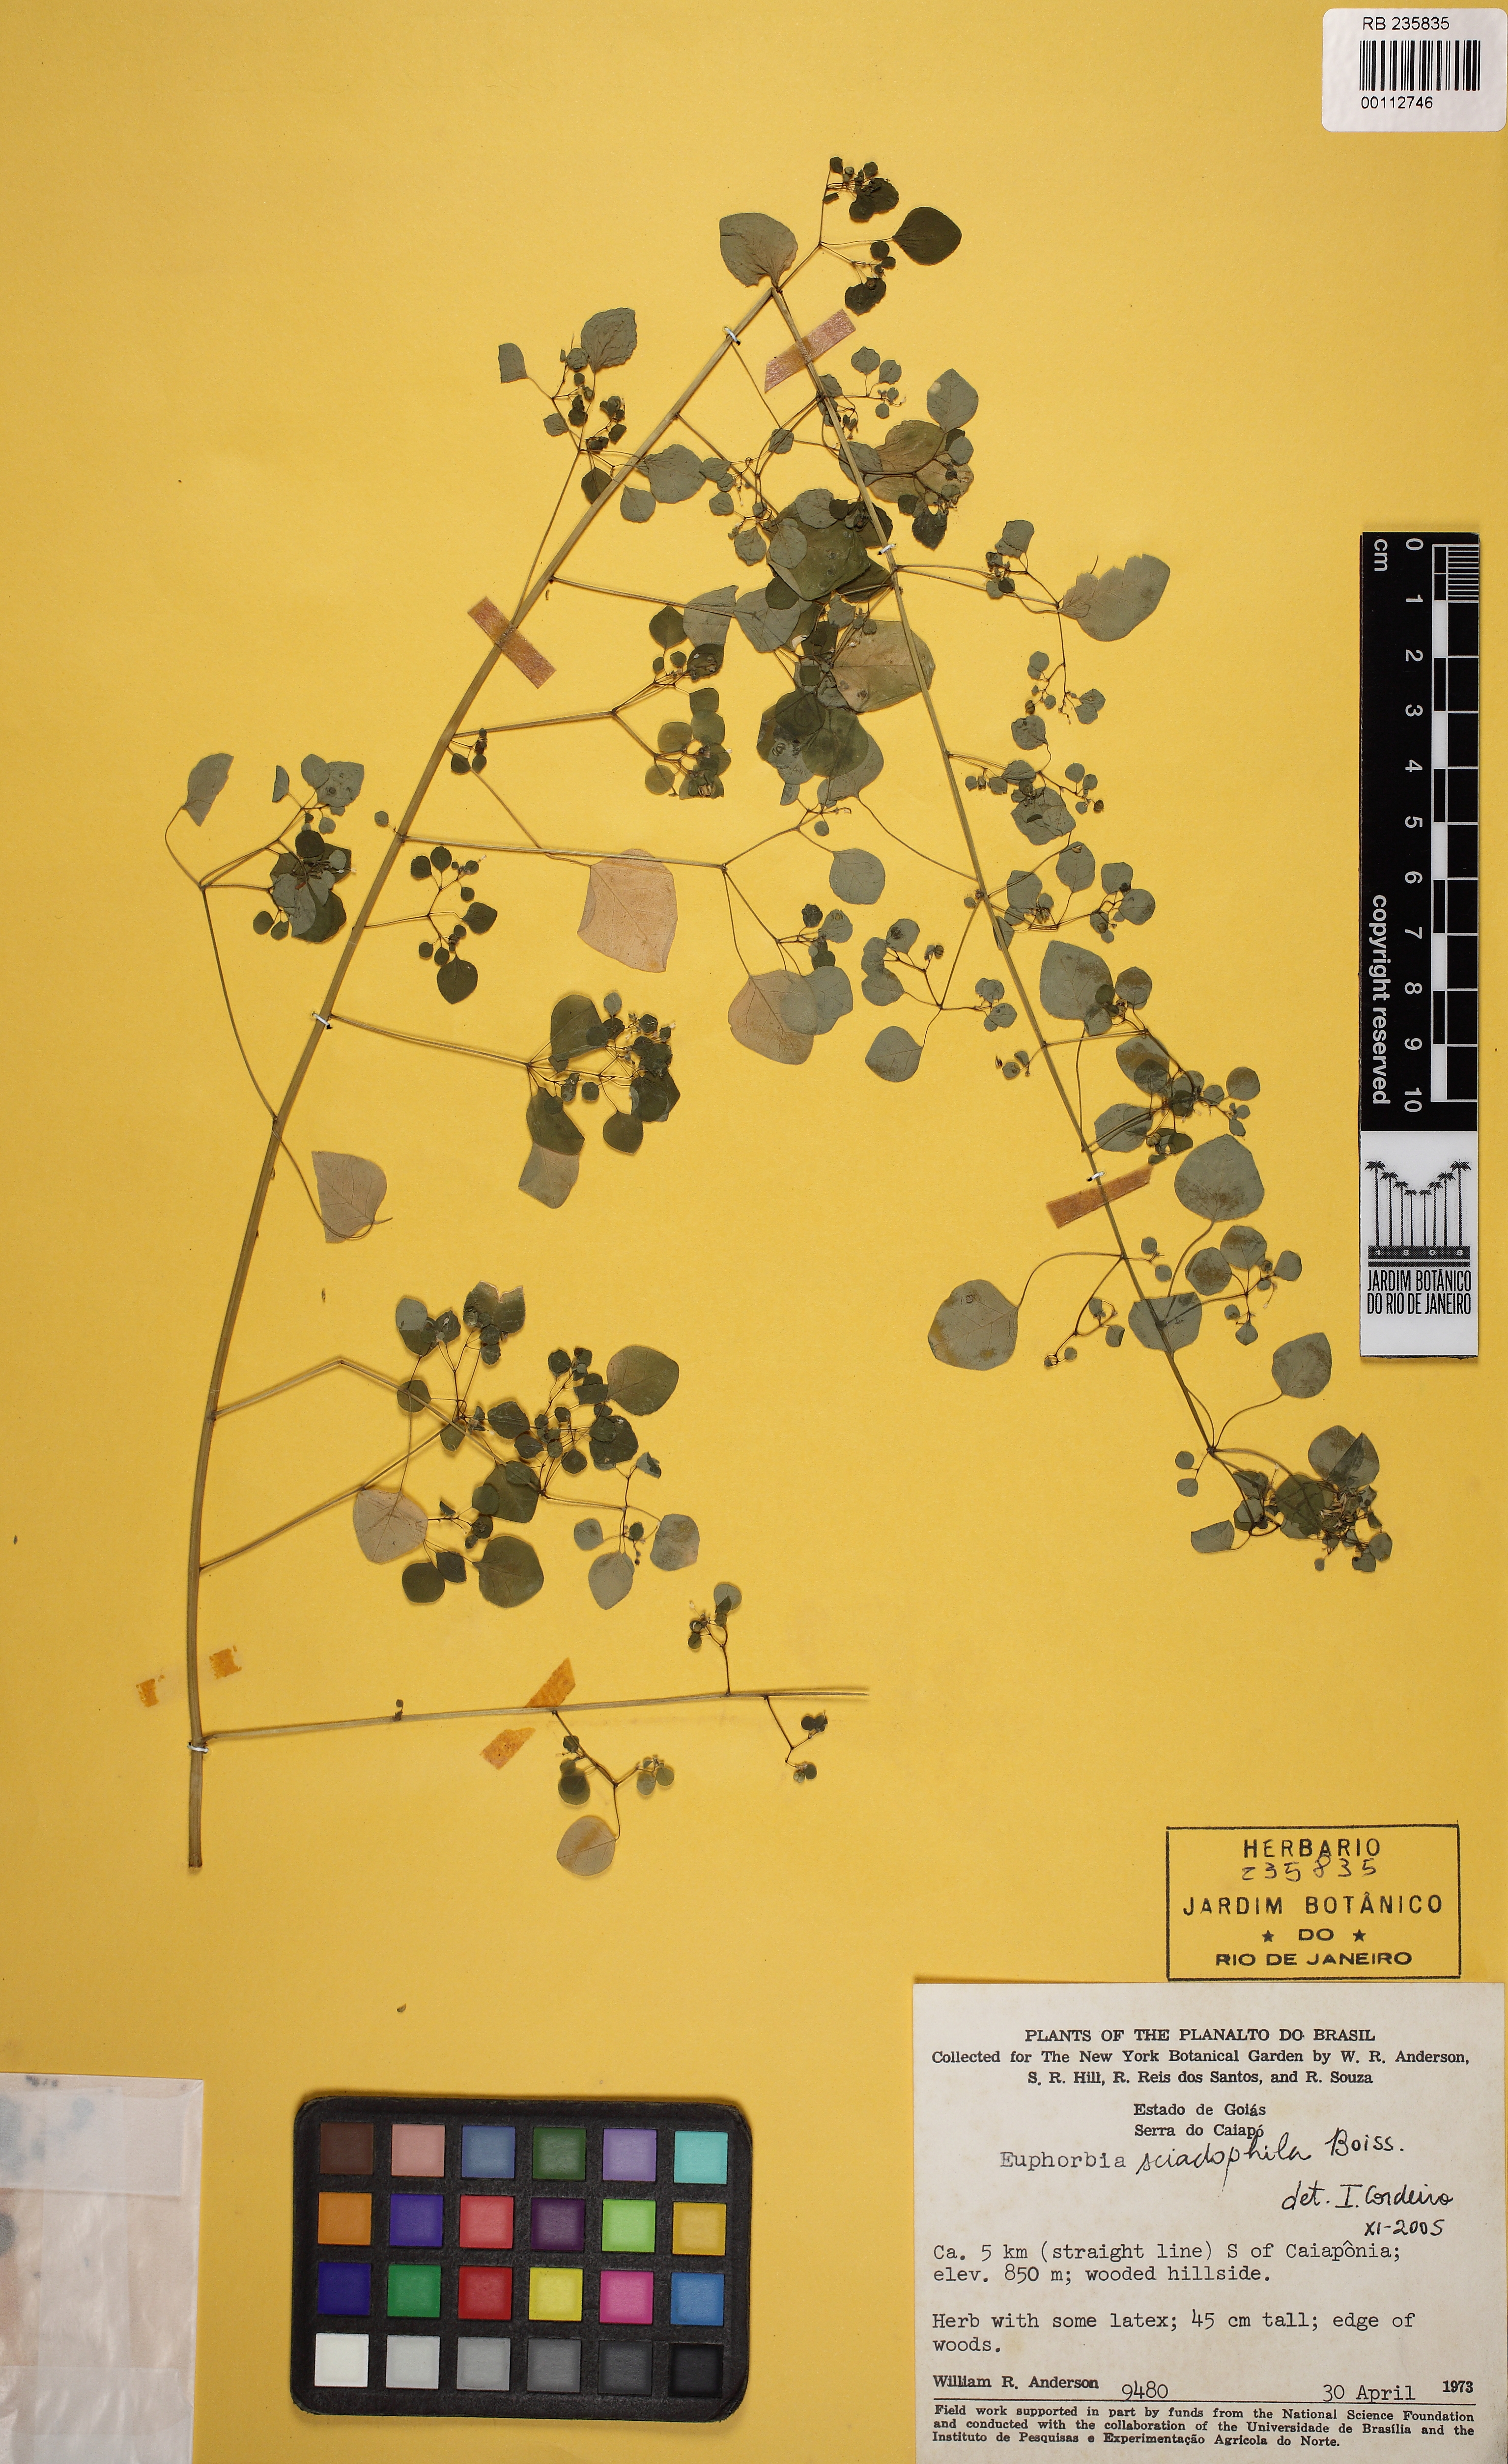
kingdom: Plantae
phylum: Tracheophyta
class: Magnoliopsida
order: Malpighiales
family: Euphorbiaceae
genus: Euphorbia
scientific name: Euphorbia sciadophila
